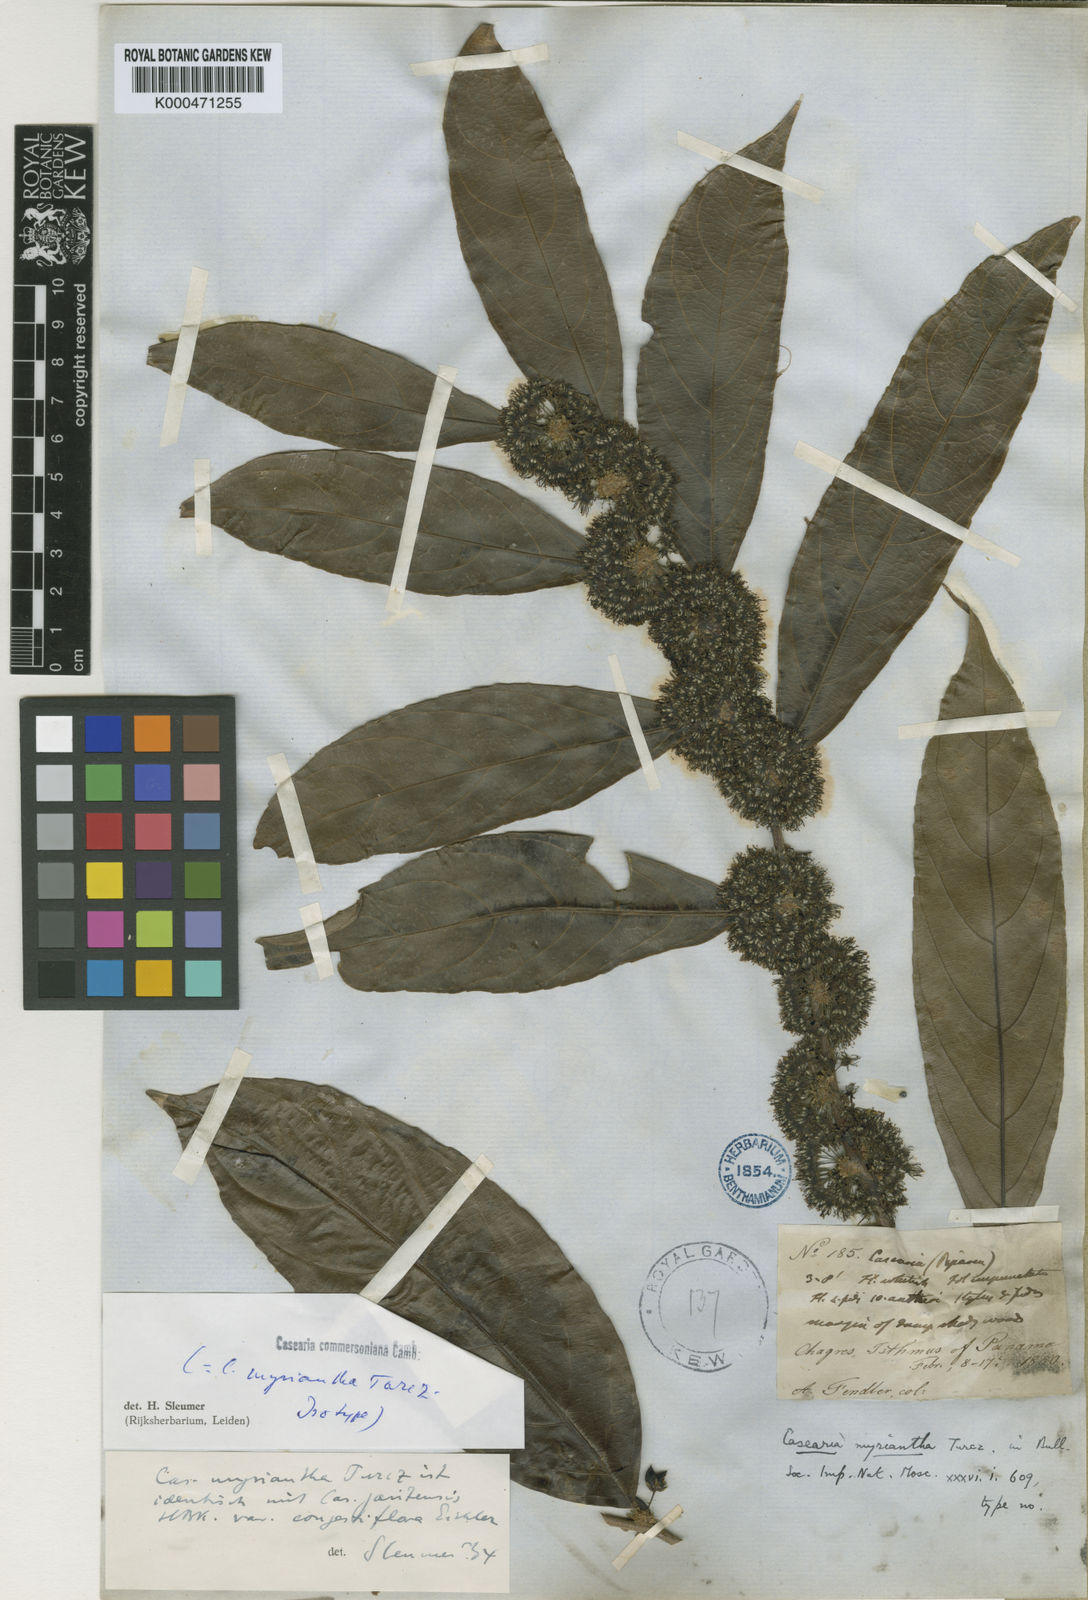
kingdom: Plantae
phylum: Tracheophyta
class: Magnoliopsida
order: Malpighiales
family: Salicaceae
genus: Piparea
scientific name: Piparea dentata
